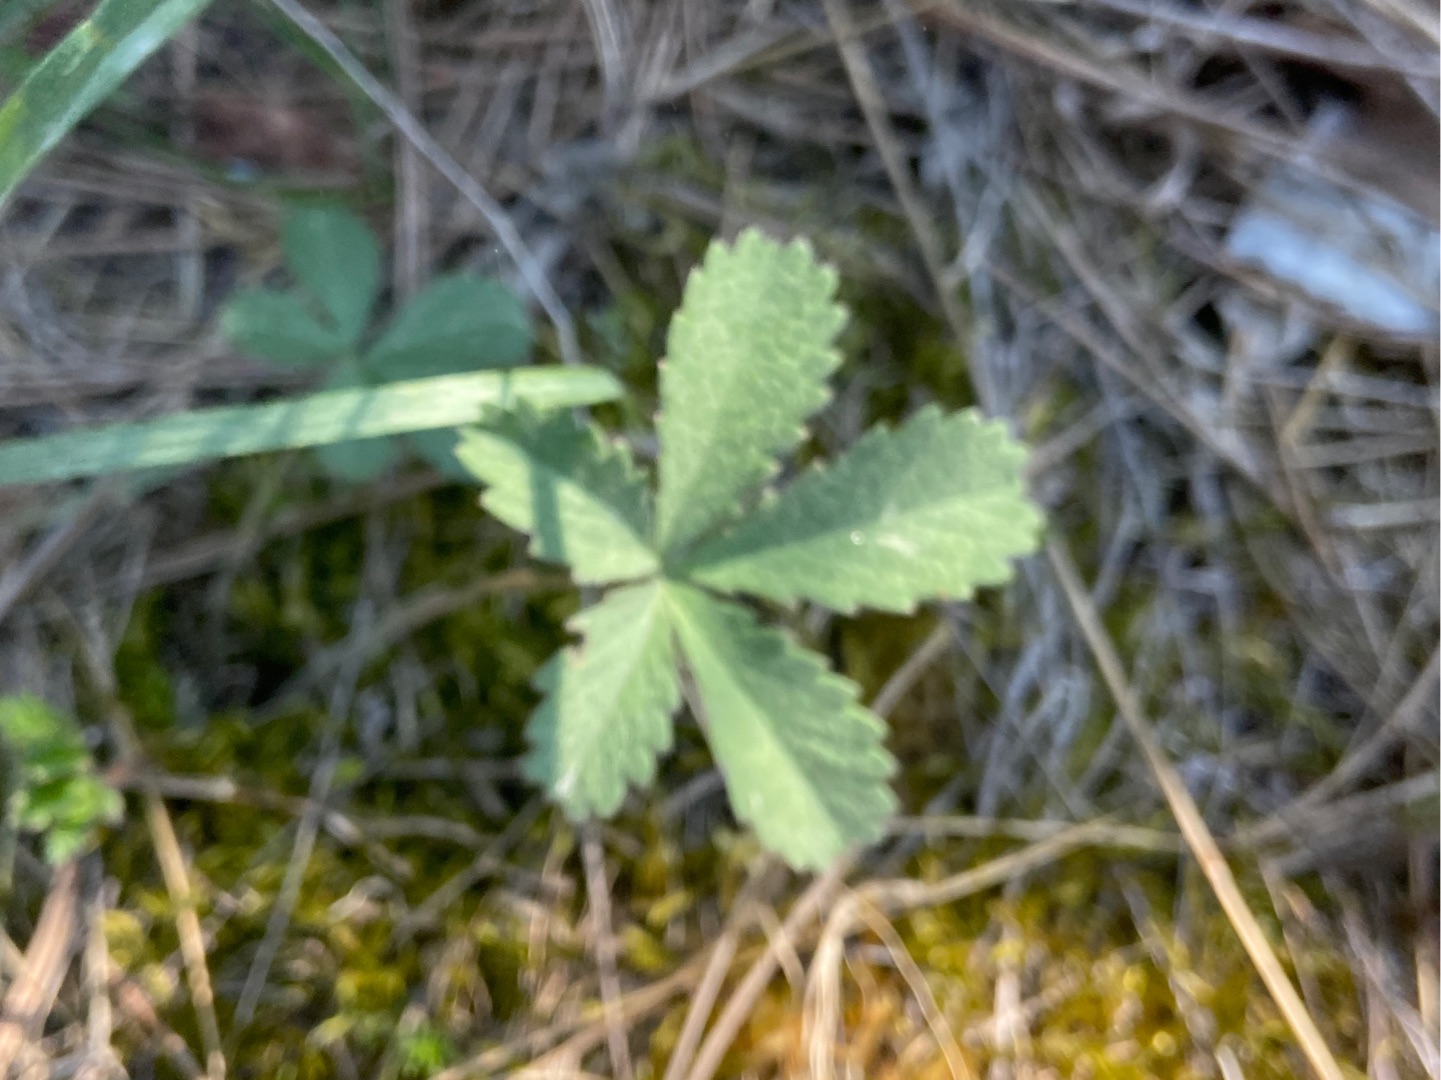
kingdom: Plantae
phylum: Tracheophyta
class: Magnoliopsida
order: Rosales
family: Rosaceae
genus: Potentilla
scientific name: Potentilla reptans
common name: Krybende potentil
